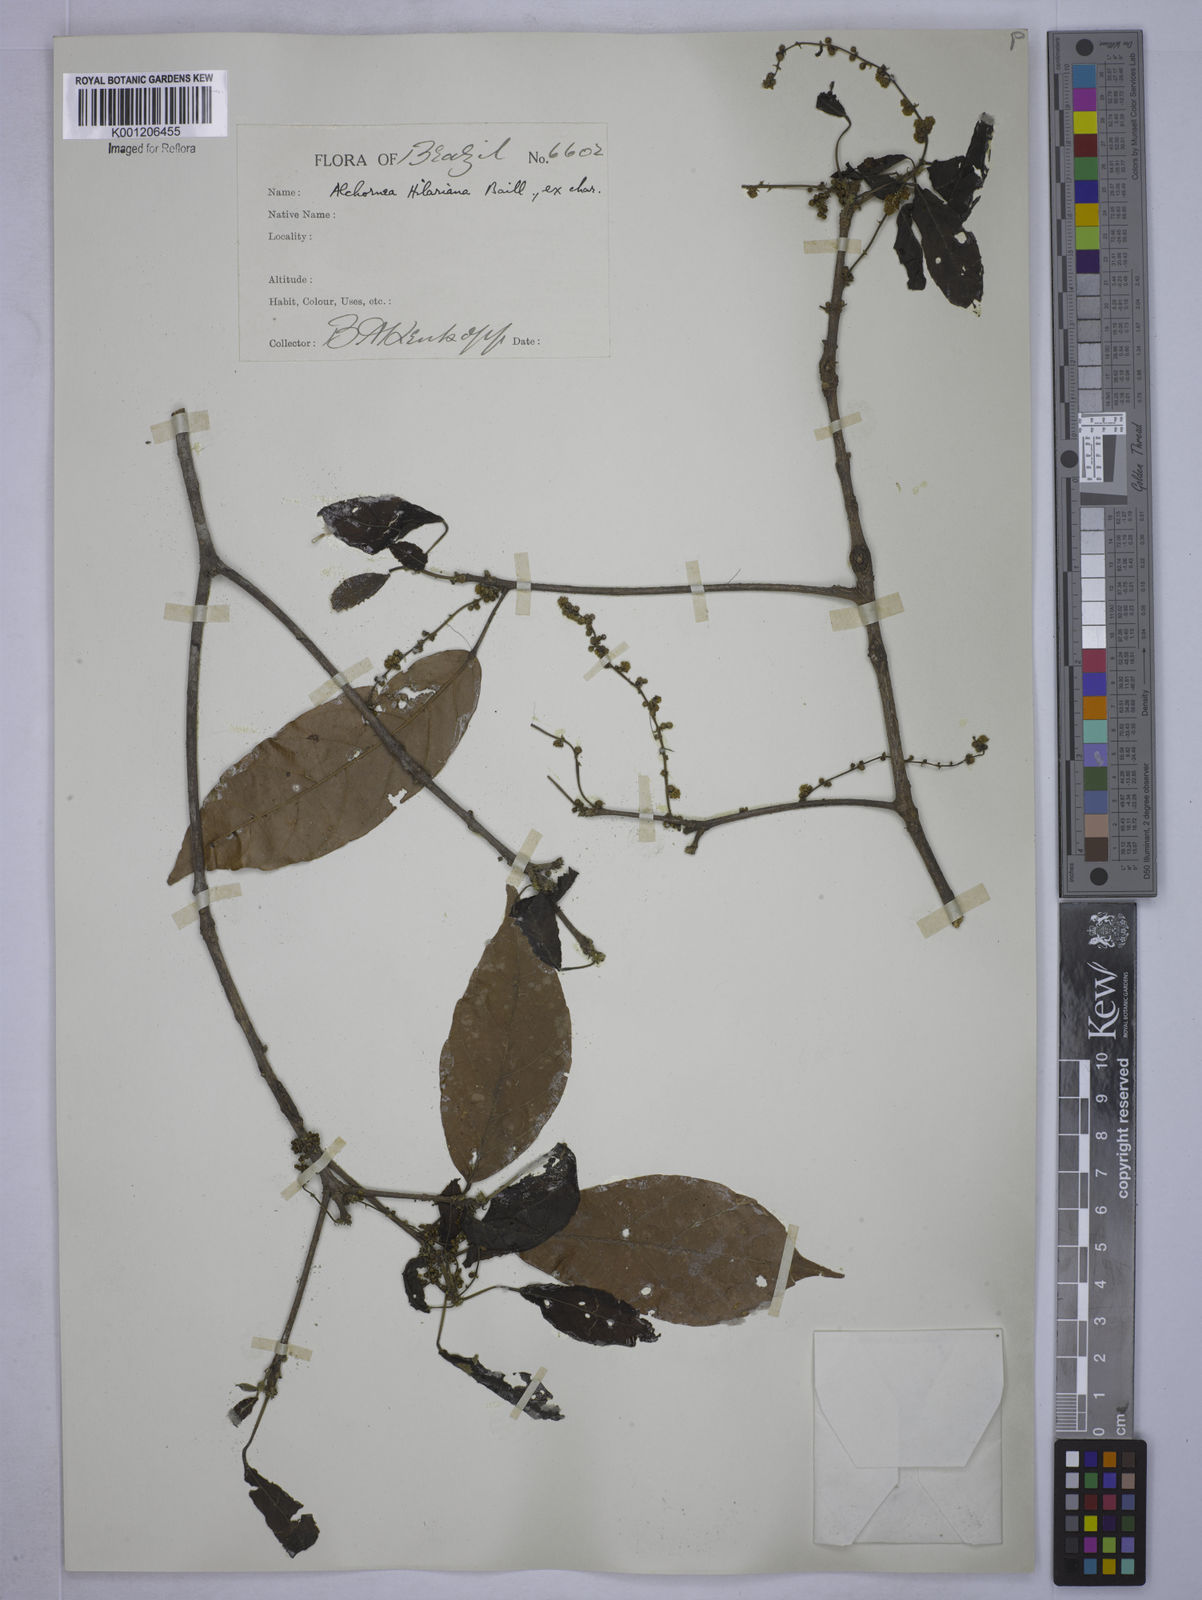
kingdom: Plantae
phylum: Tracheophyta
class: Magnoliopsida
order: Malpighiales
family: Euphorbiaceae
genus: Conceveiba
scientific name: Conceveiba praealta
